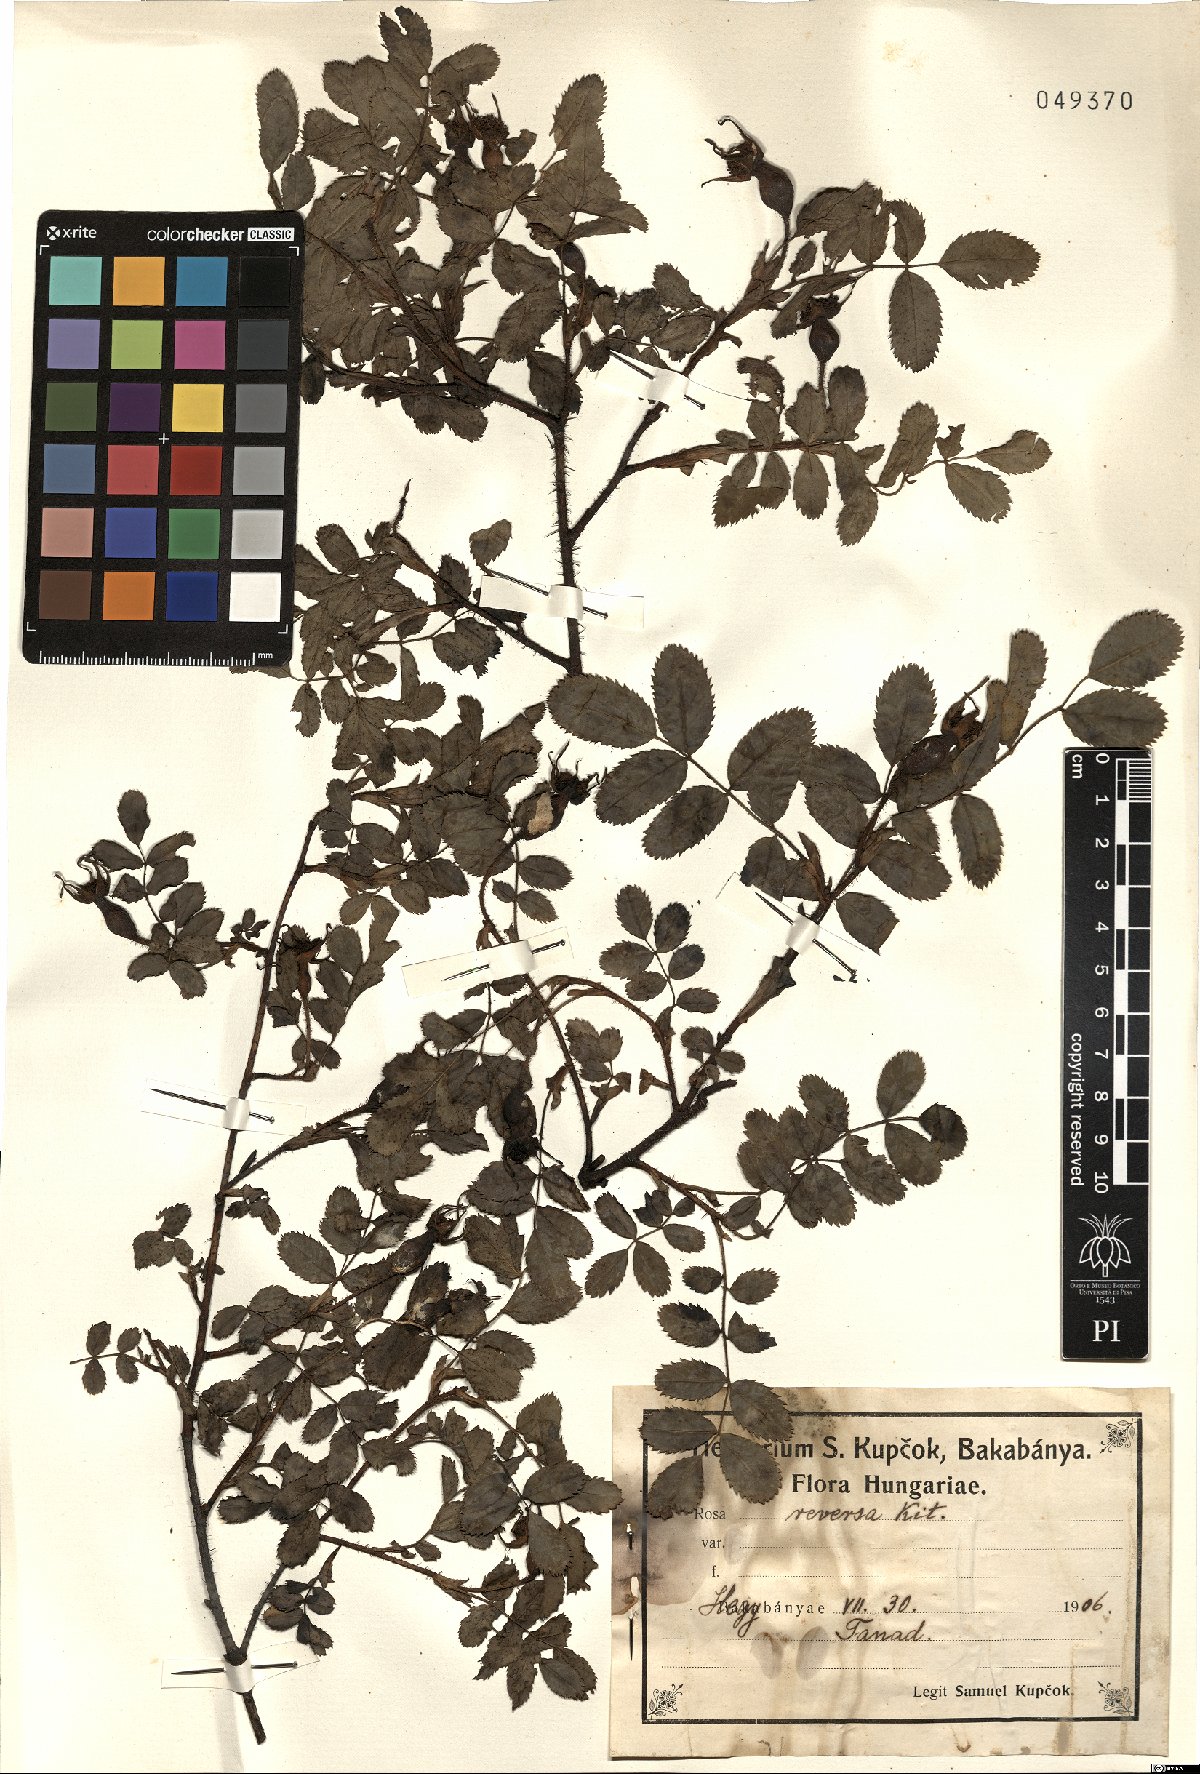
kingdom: Plantae
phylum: Tracheophyta
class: Magnoliopsida
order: Rosales
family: Rosaceae
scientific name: Rosaceae
